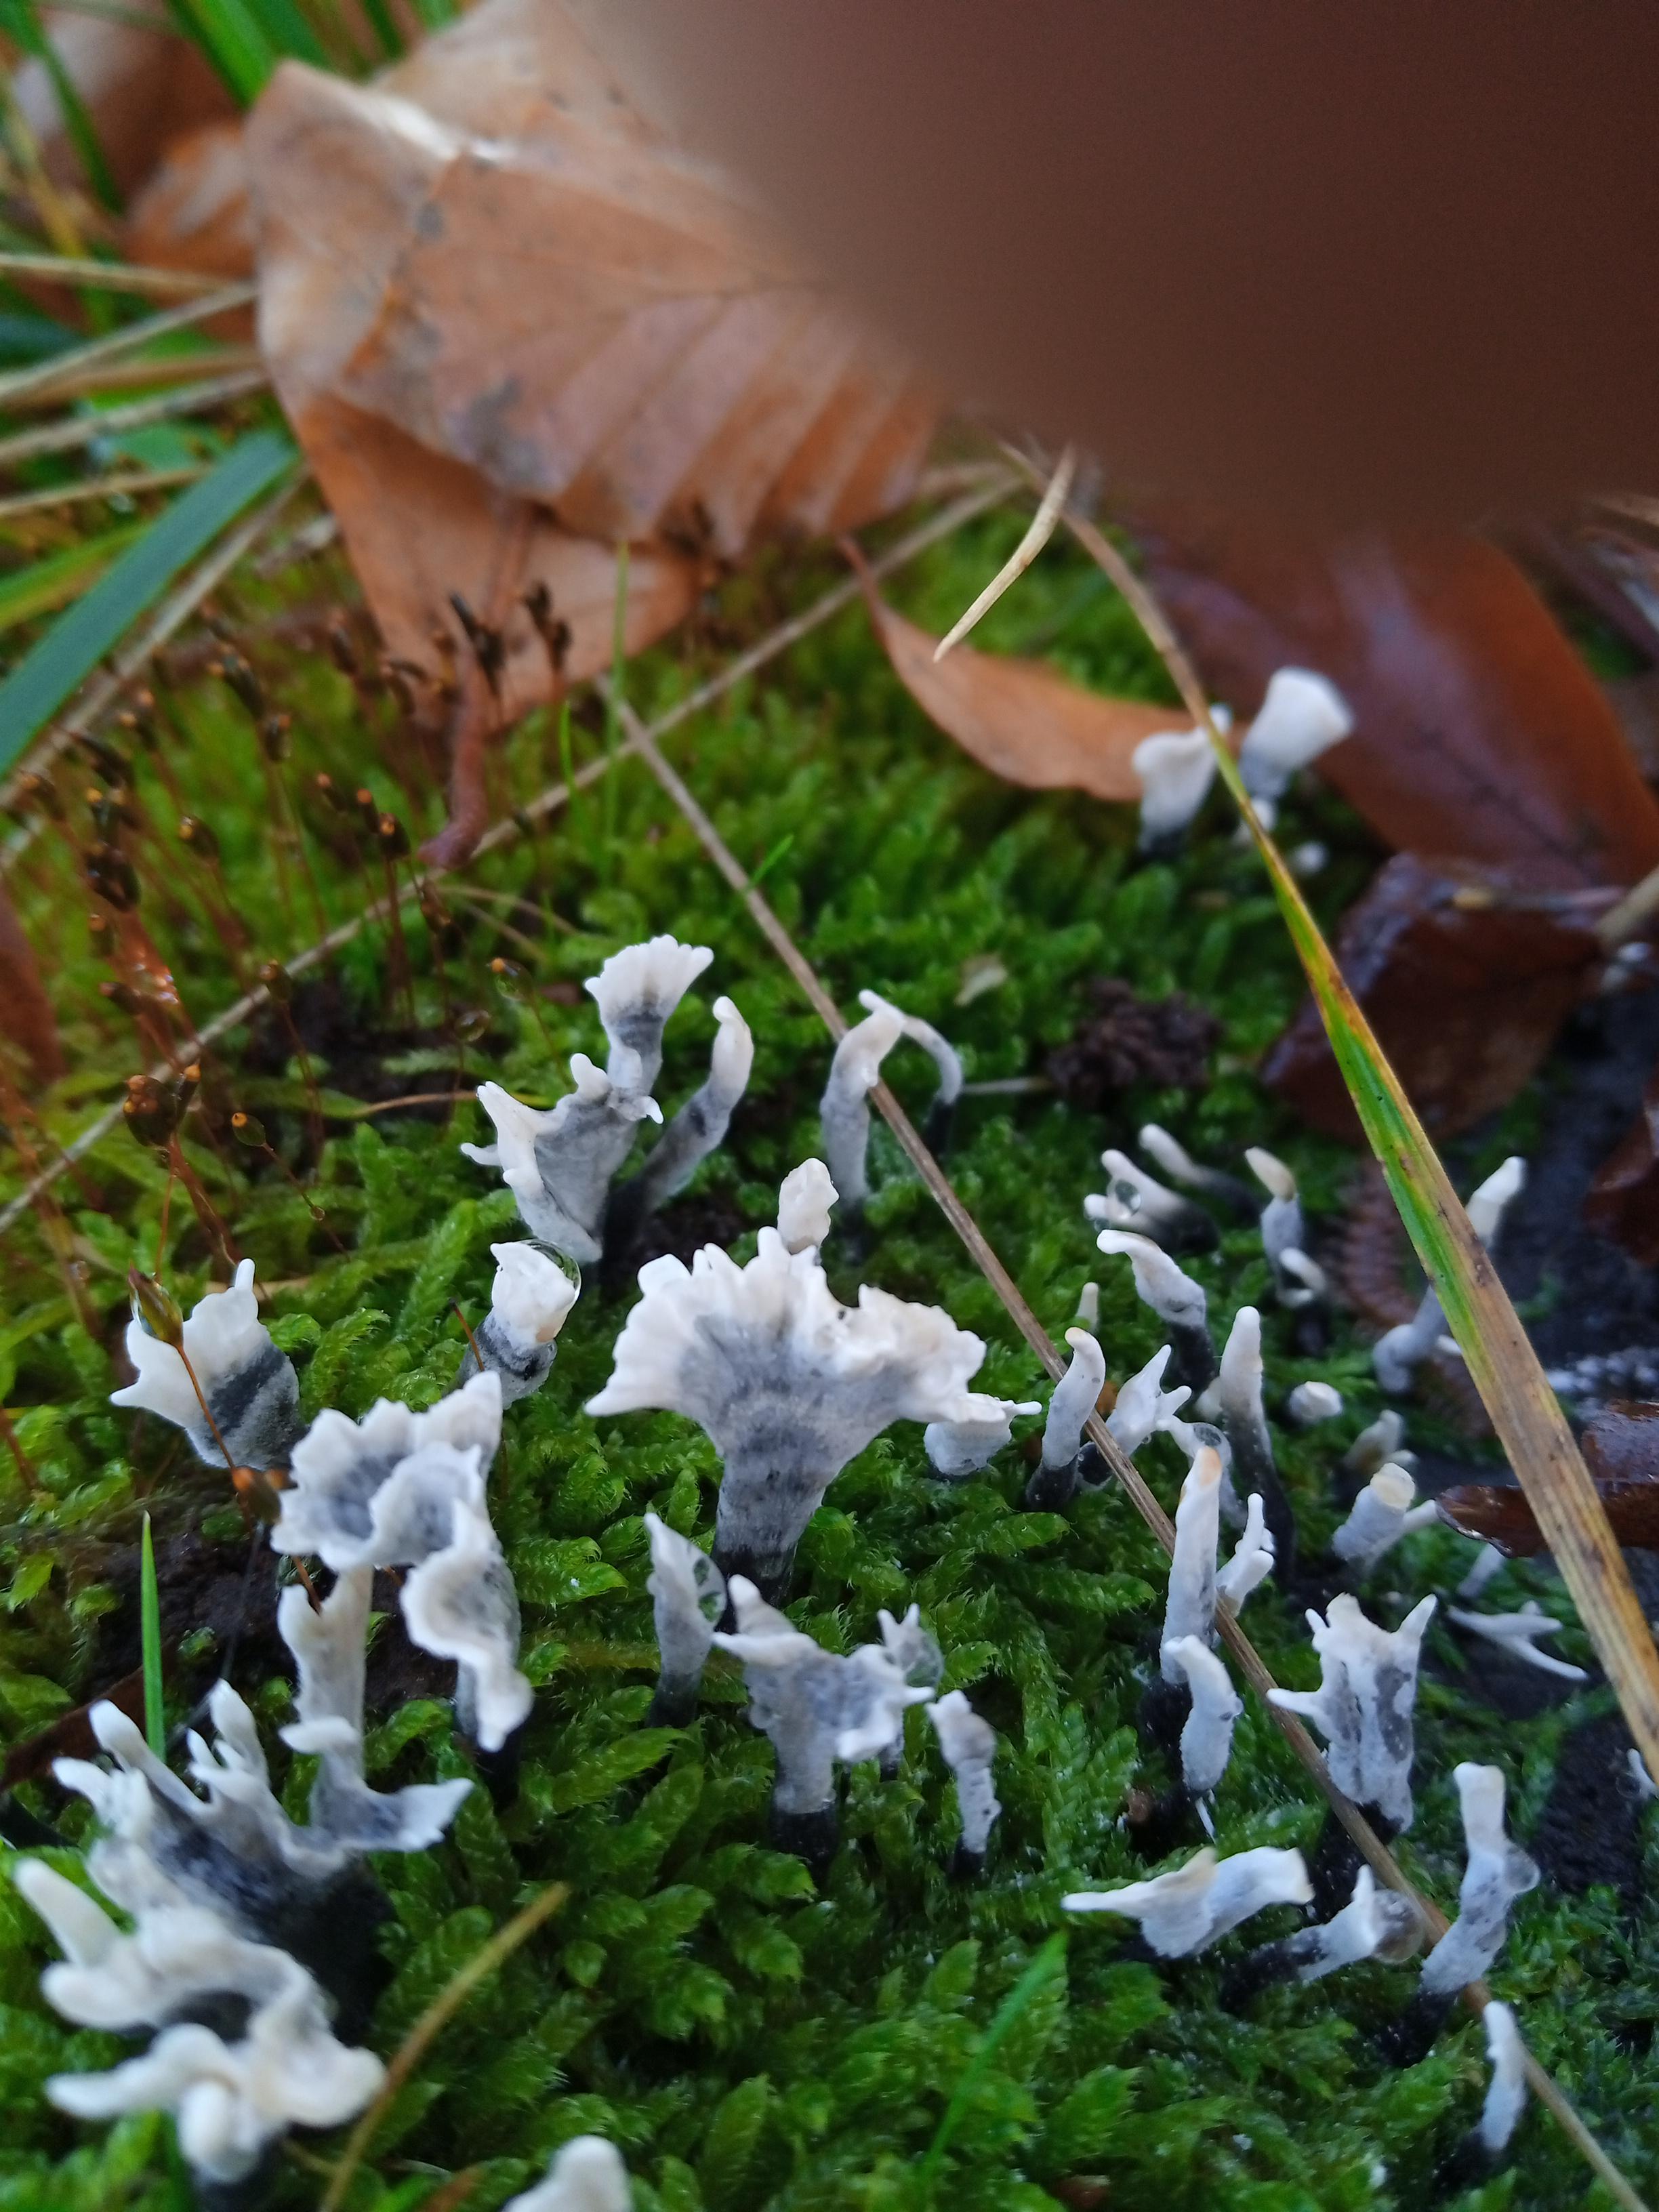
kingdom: Fungi
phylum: Ascomycota
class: Sordariomycetes
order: Xylariales
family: Xylariaceae
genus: Xylaria
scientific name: Xylaria hypoxylon
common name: grenet stødsvamp
